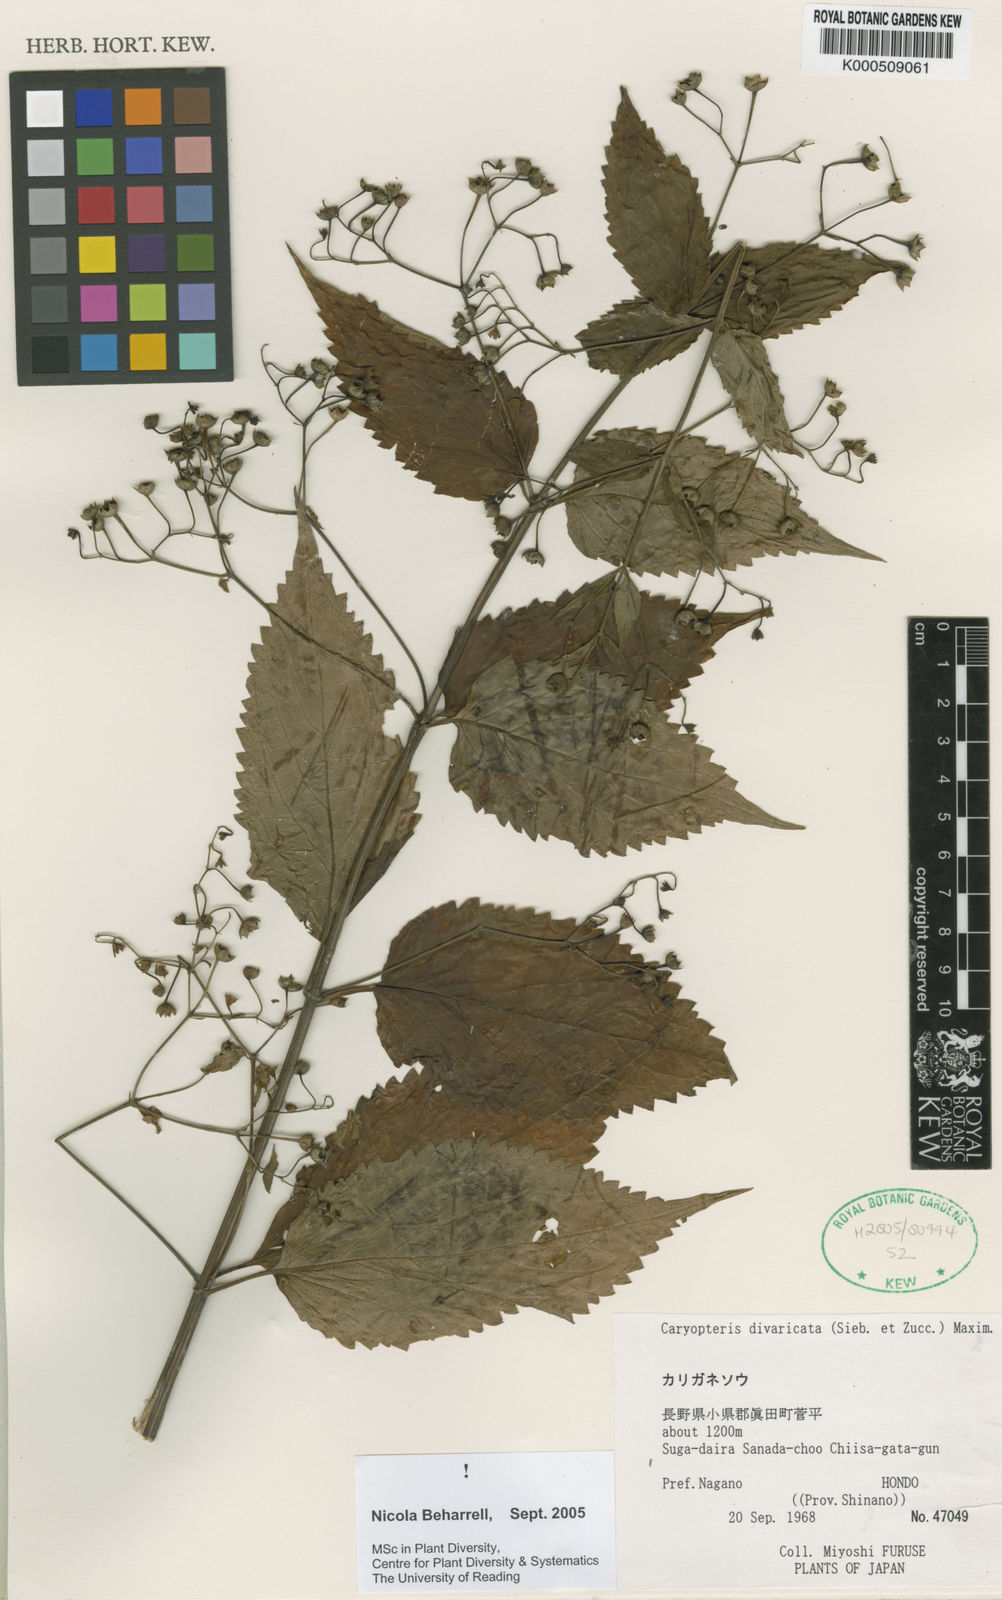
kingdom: Plantae
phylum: Tracheophyta
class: Magnoliopsida
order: Lamiales
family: Lamiaceae
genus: Tripora
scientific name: Tripora divaricata
